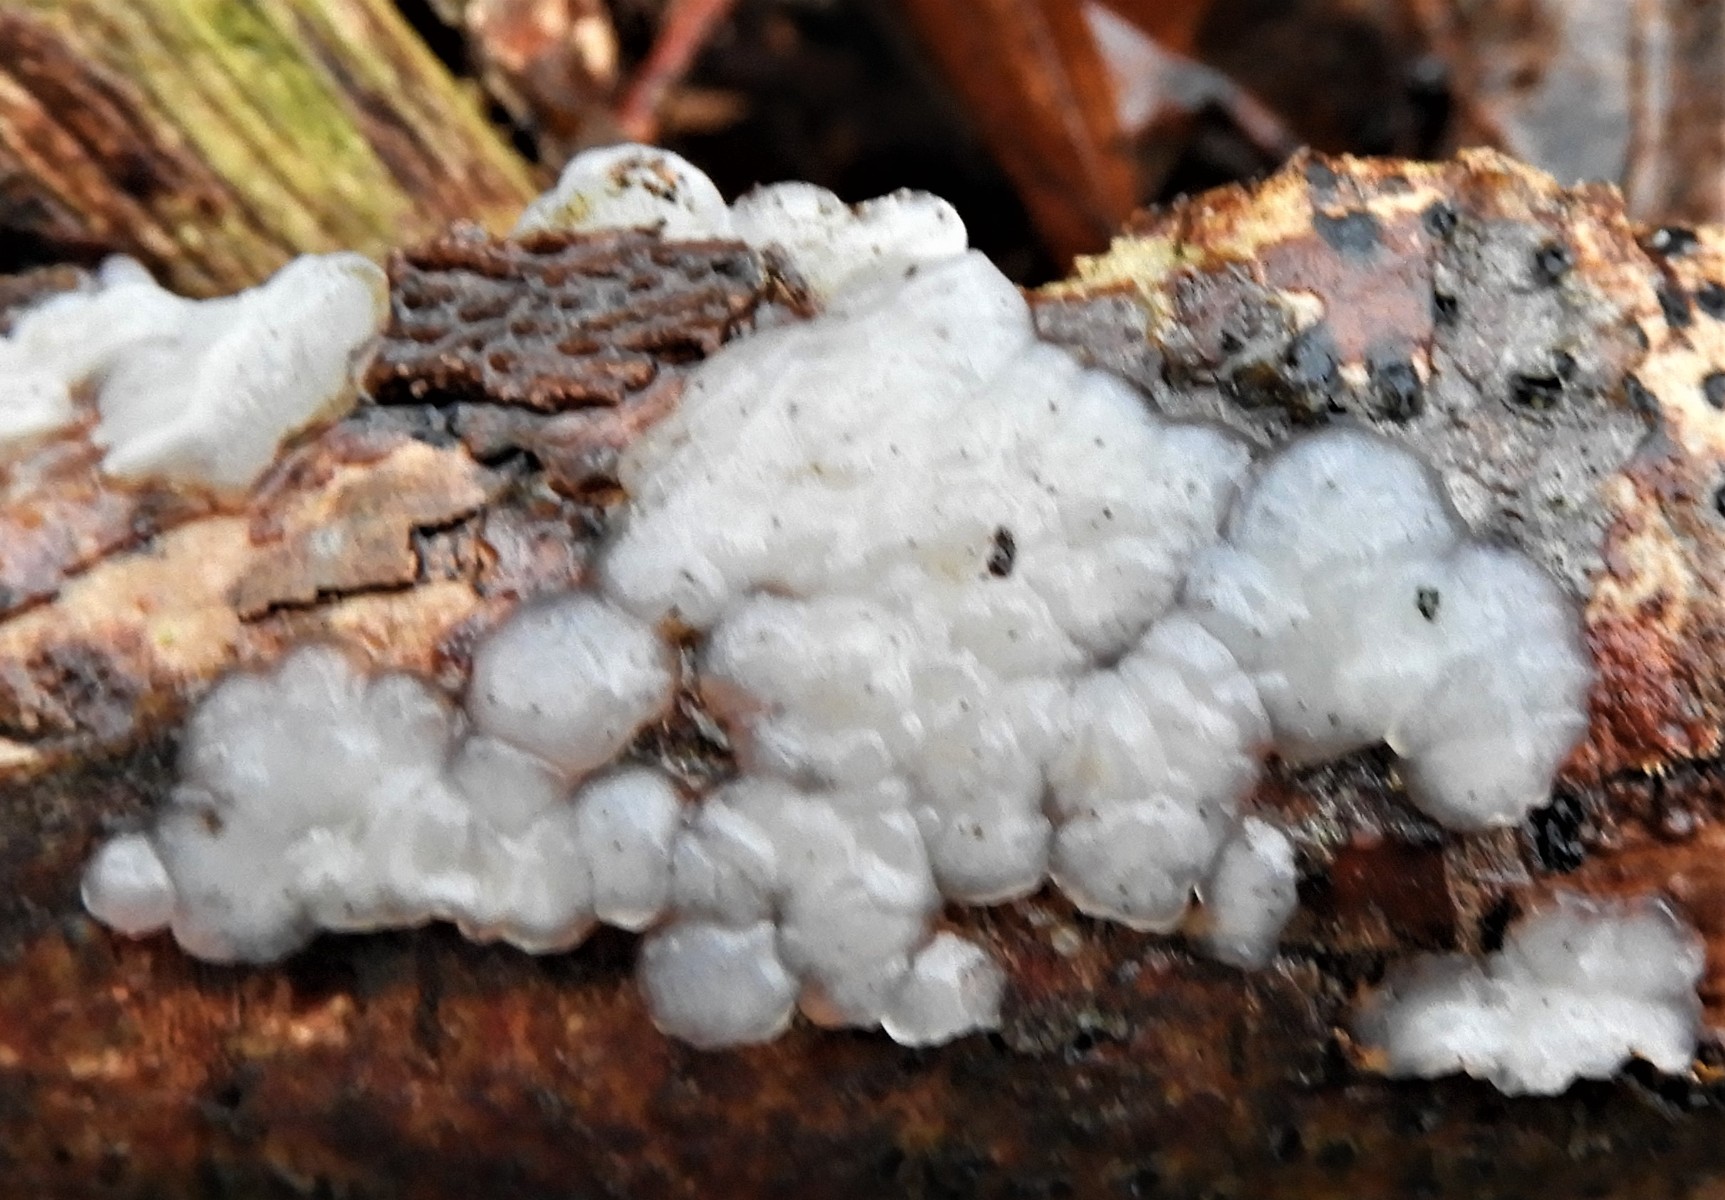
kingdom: Fungi
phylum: Basidiomycota
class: Agaricomycetes
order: Auriculariales
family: Auriculariaceae
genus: Exidia
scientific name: Exidia thuretiana
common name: hvidlig bævretop
